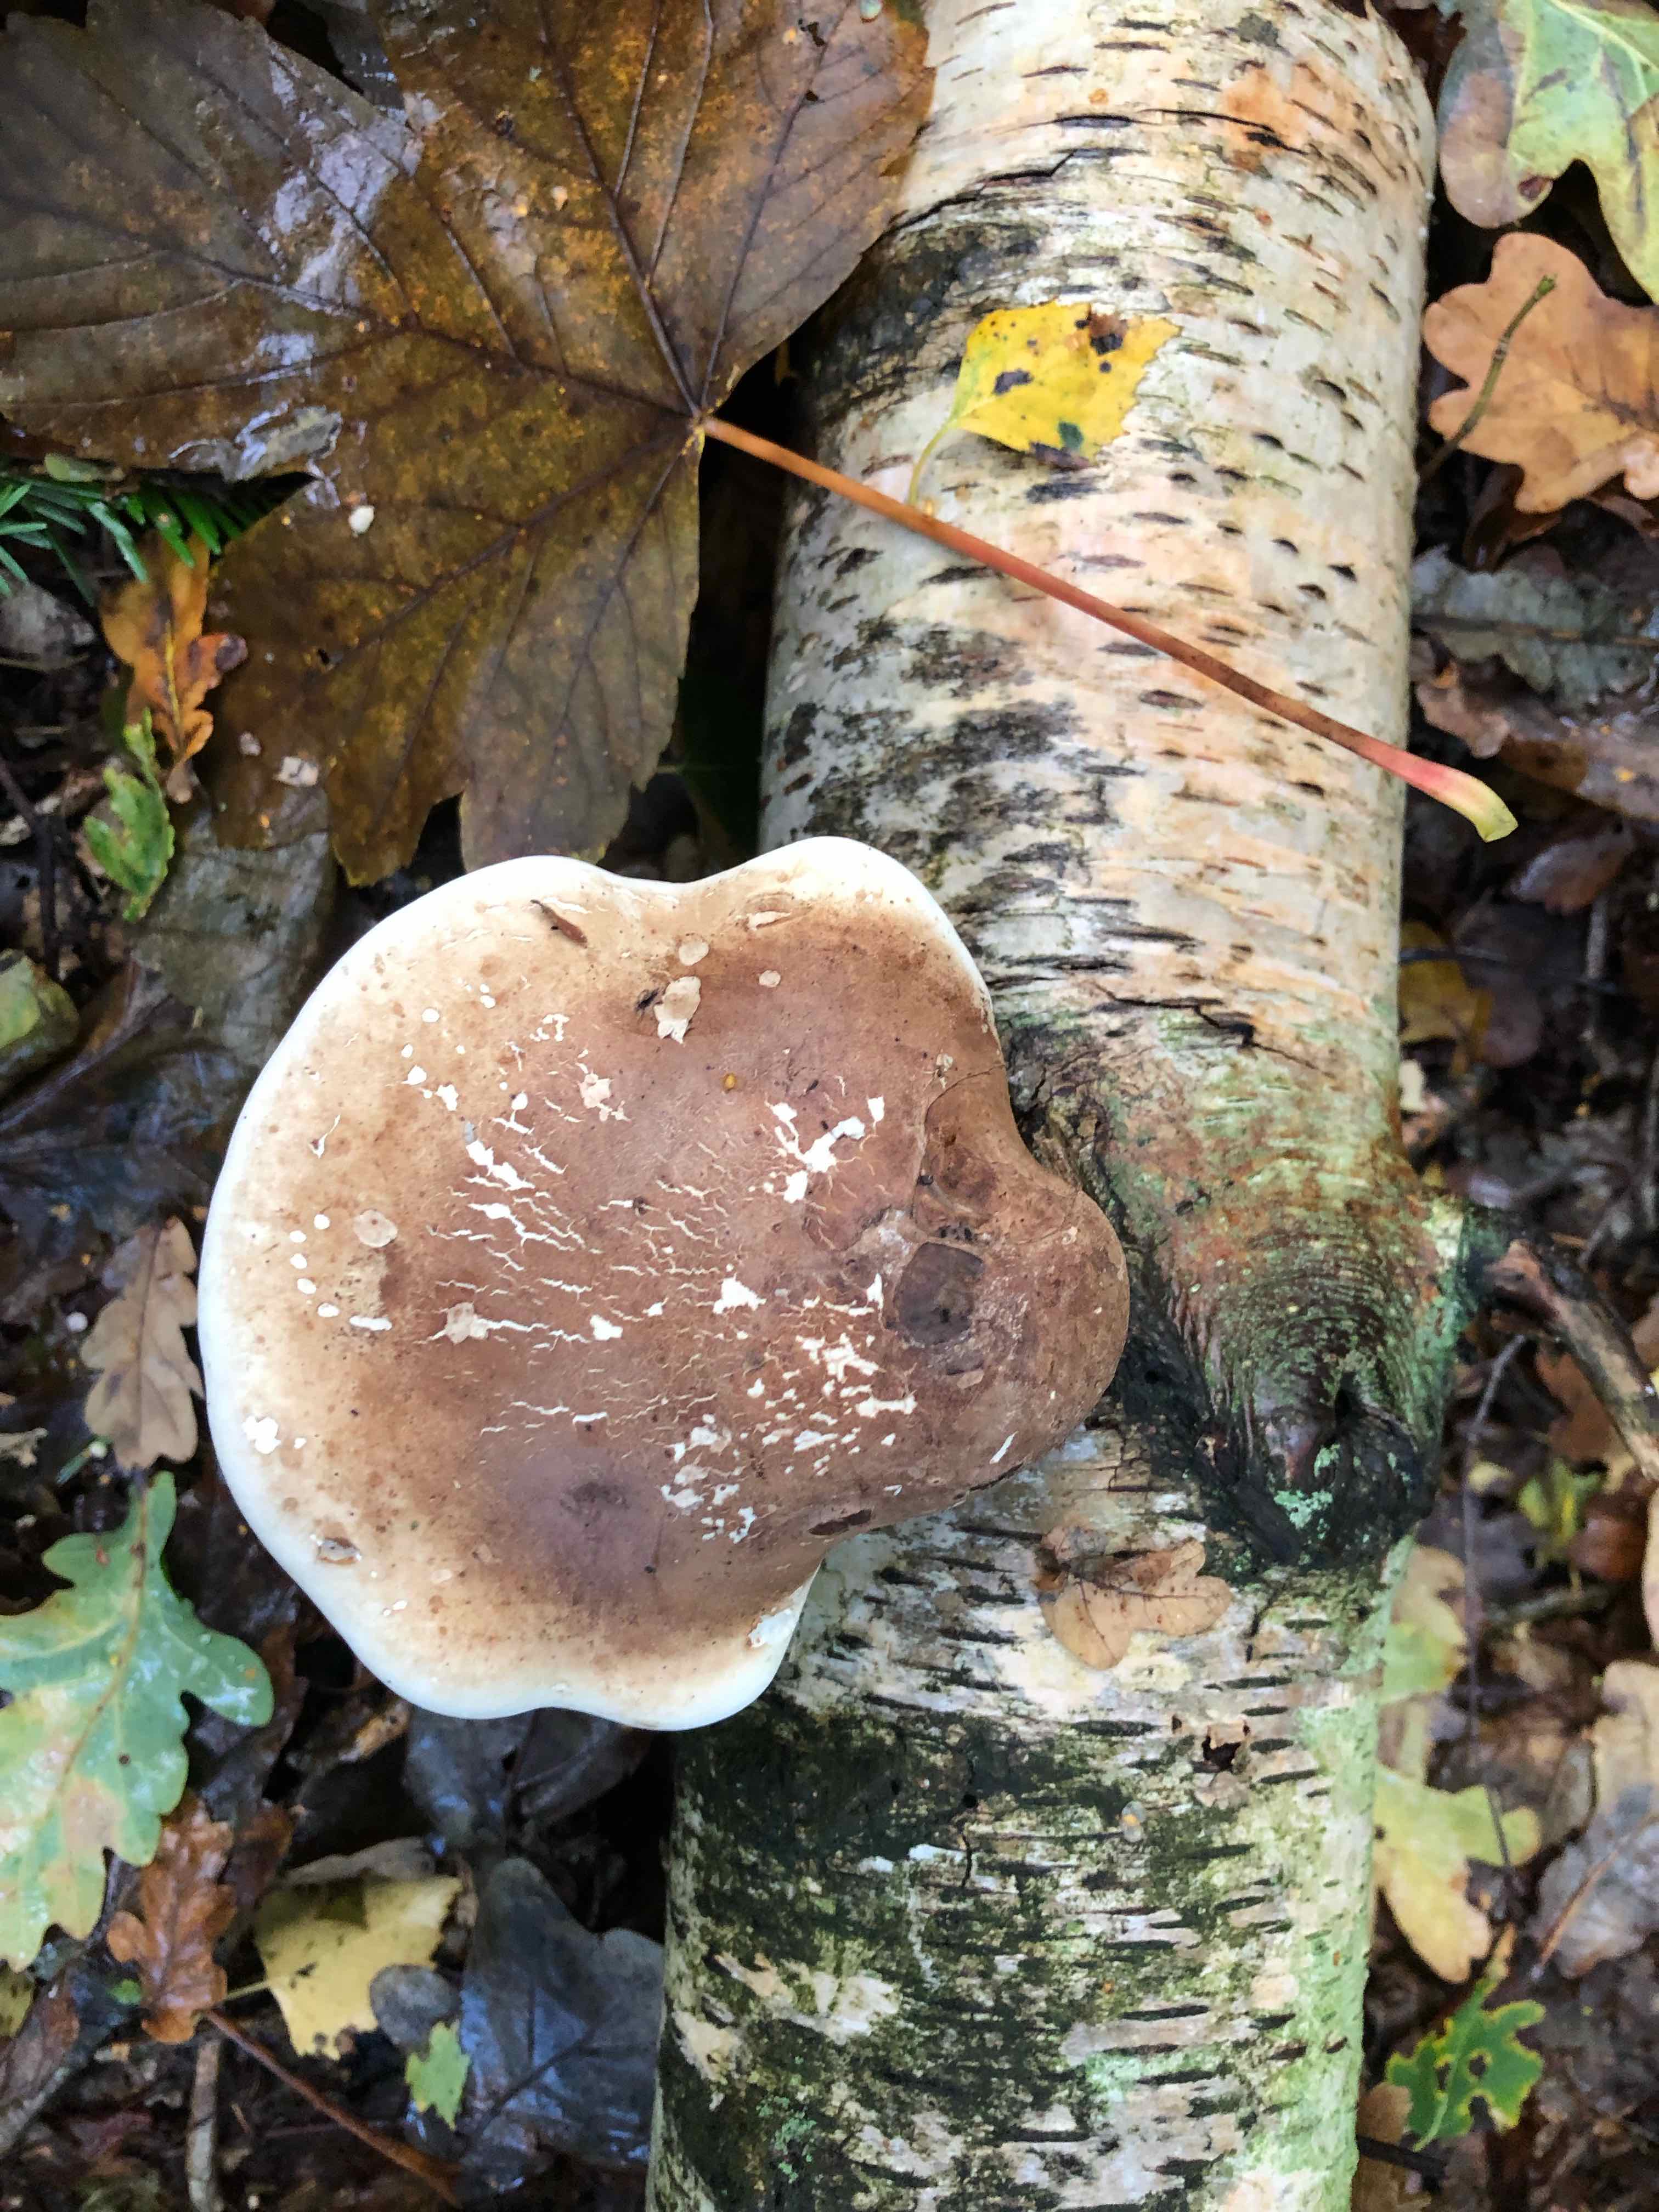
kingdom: Fungi
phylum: Basidiomycota
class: Agaricomycetes
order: Polyporales
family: Fomitopsidaceae
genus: Fomitopsis
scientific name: Fomitopsis betulina
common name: birkeporesvamp
